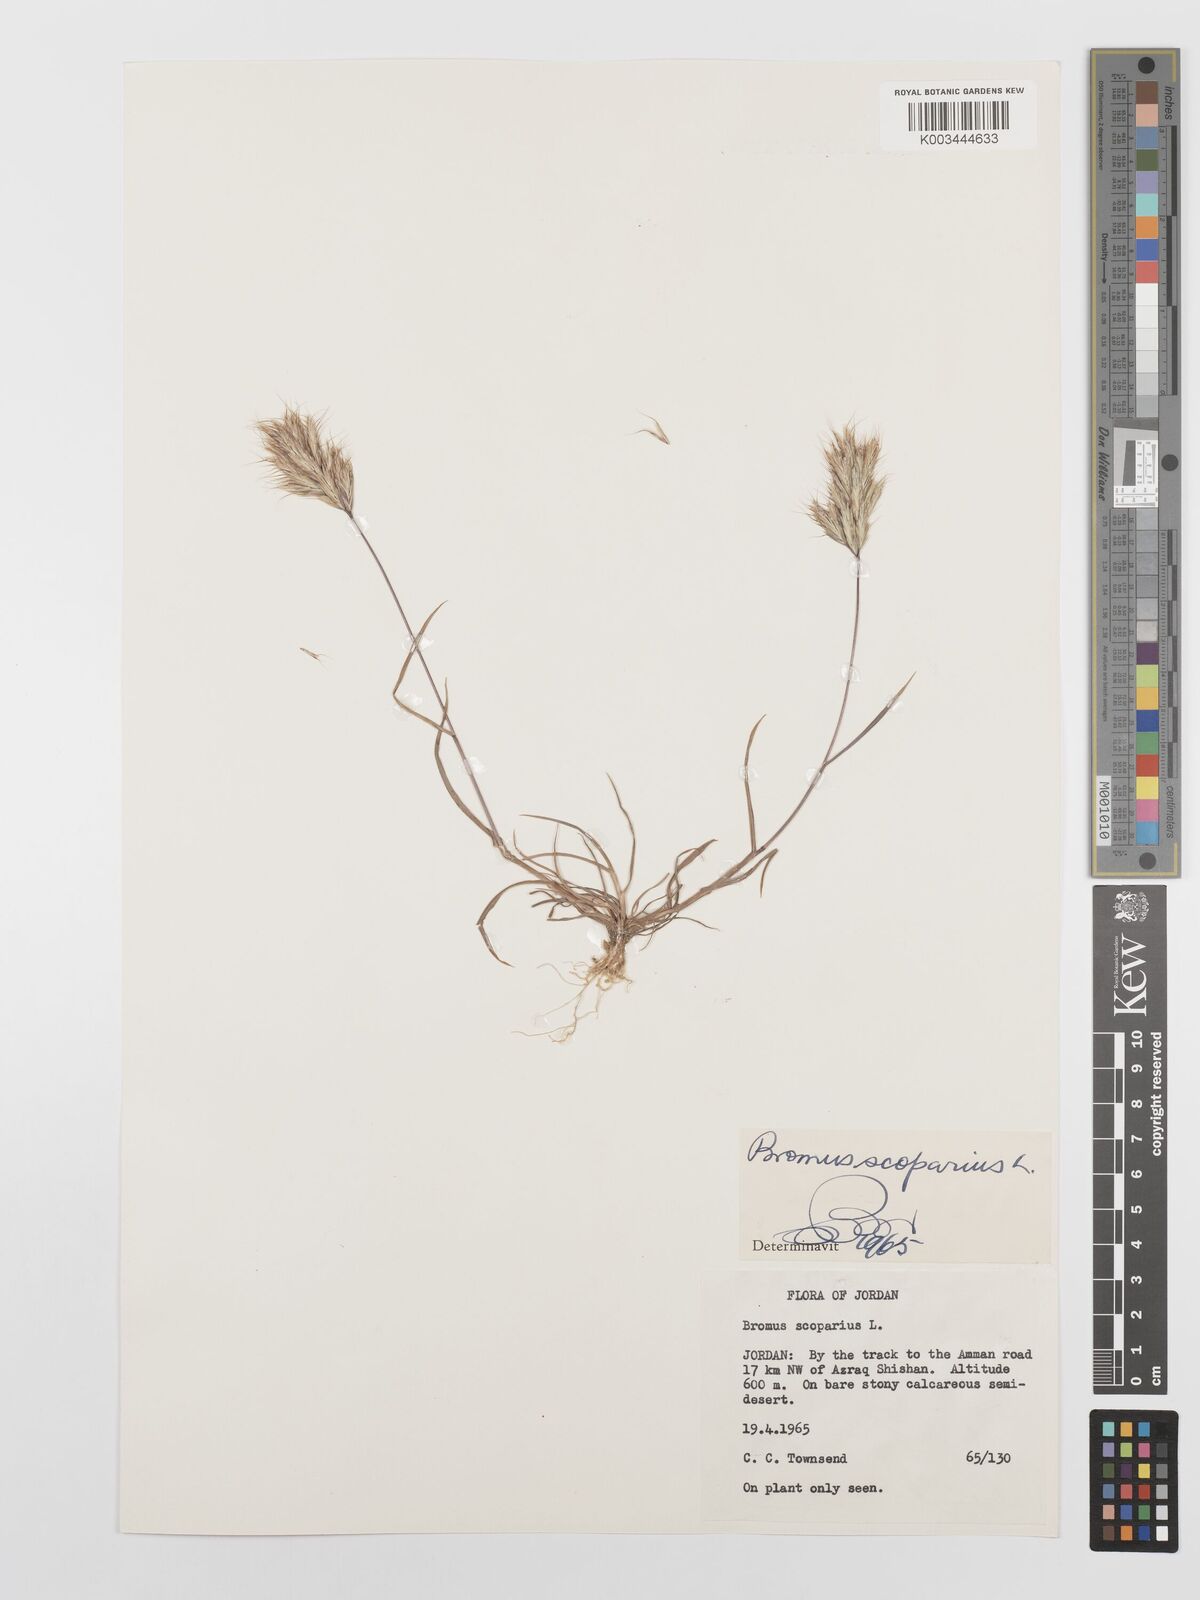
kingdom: Plantae
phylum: Tracheophyta
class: Liliopsida
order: Poales
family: Poaceae
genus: Bromus
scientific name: Bromus scoparius
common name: Broom brome
